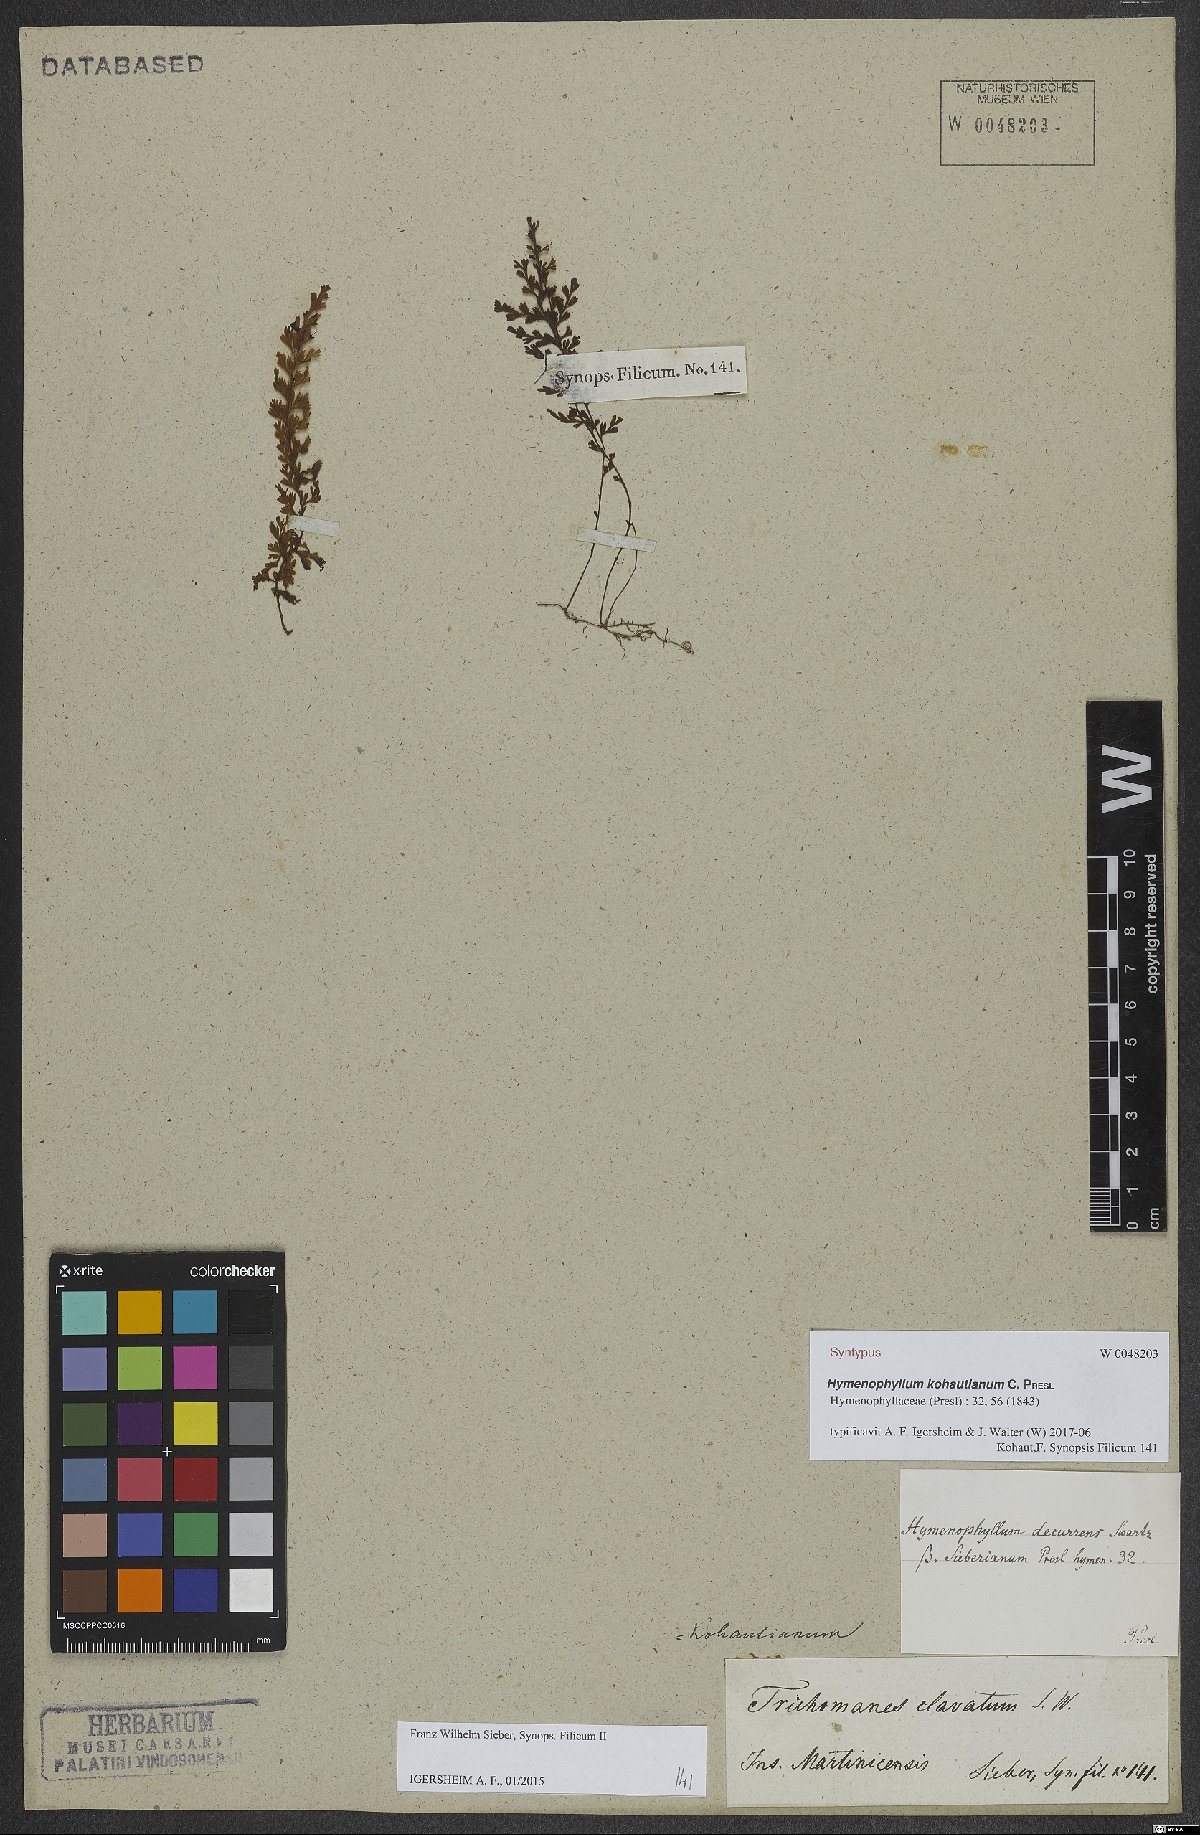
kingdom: Plantae
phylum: Tracheophyta
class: Polypodiopsida
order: Hymenophyllales
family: Hymenophyllaceae
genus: Hymenophyllum
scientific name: Hymenophyllum protrusum
